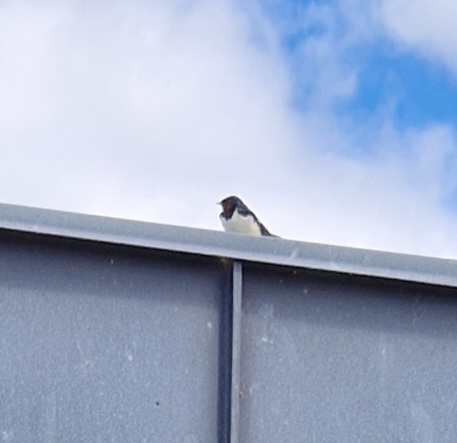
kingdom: Animalia
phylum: Chordata
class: Aves
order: Passeriformes
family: Hirundinidae
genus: Hirundo
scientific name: Hirundo rustica
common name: Landsvale
